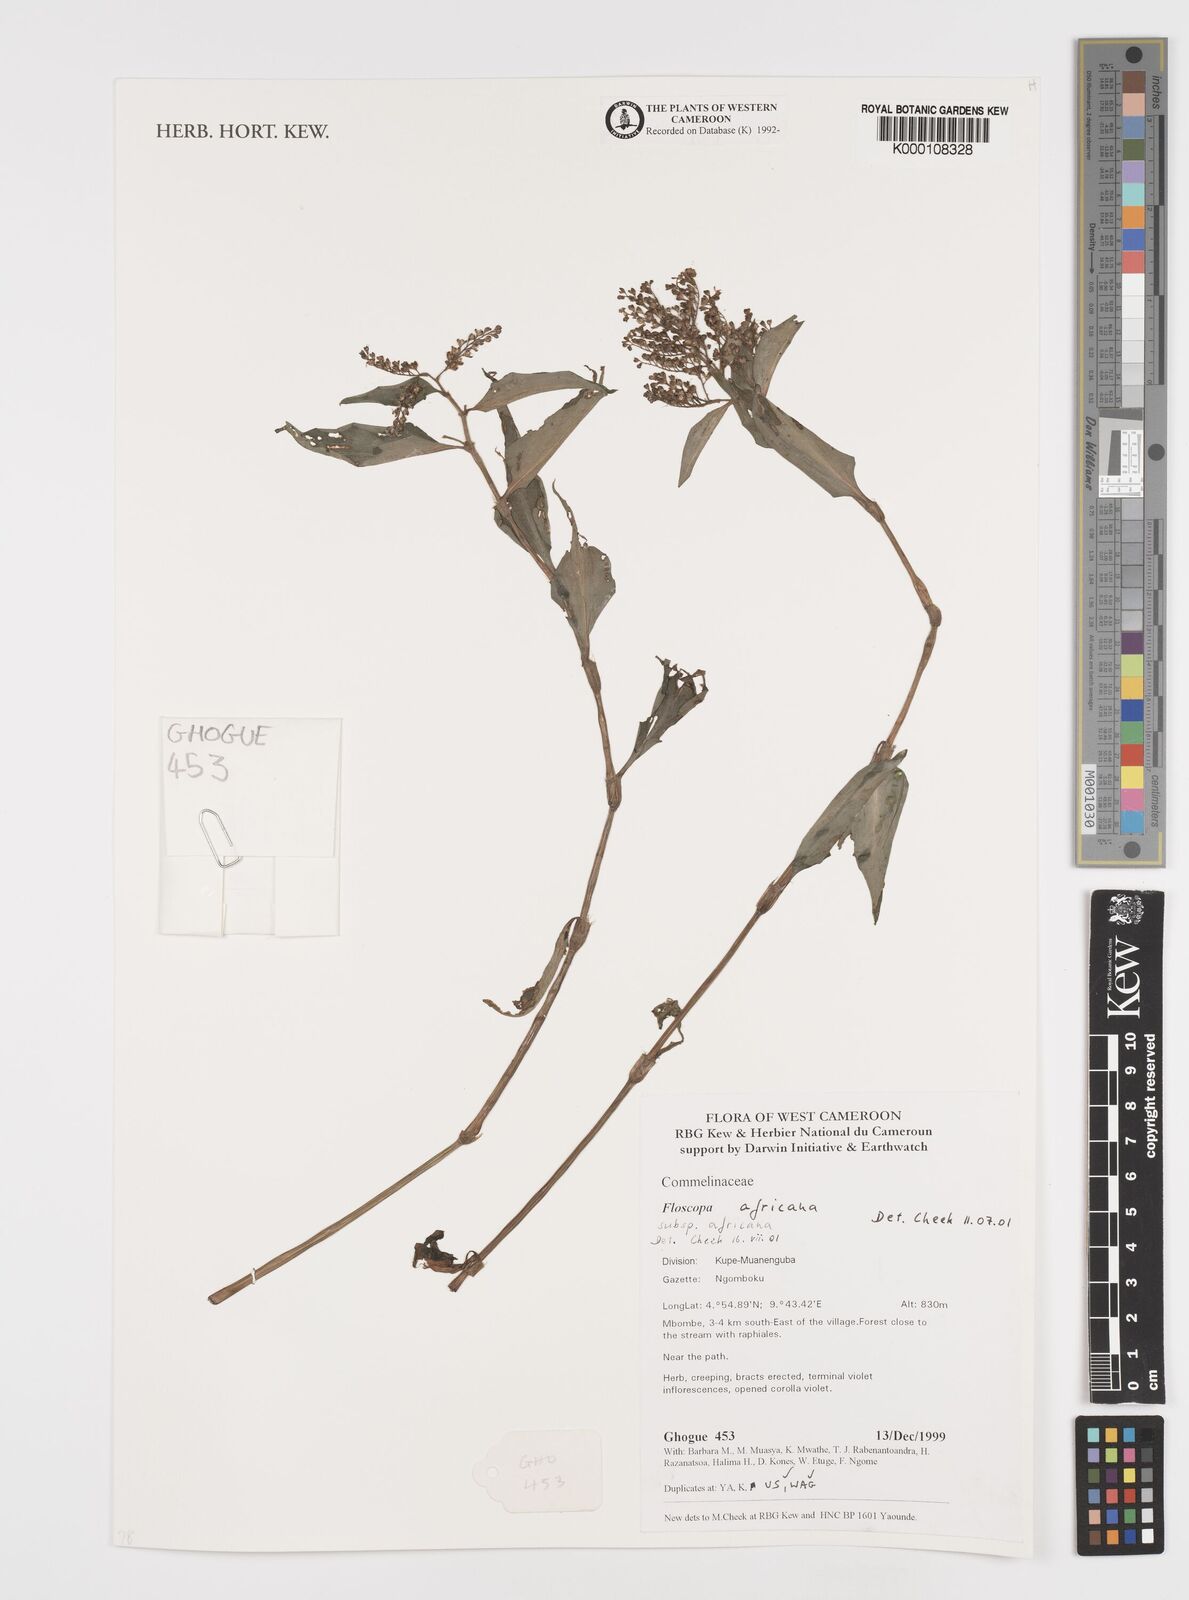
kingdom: Plantae
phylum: Tracheophyta
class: Liliopsida
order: Commelinales
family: Commelinaceae
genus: Floscopa
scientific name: Floscopa africana
